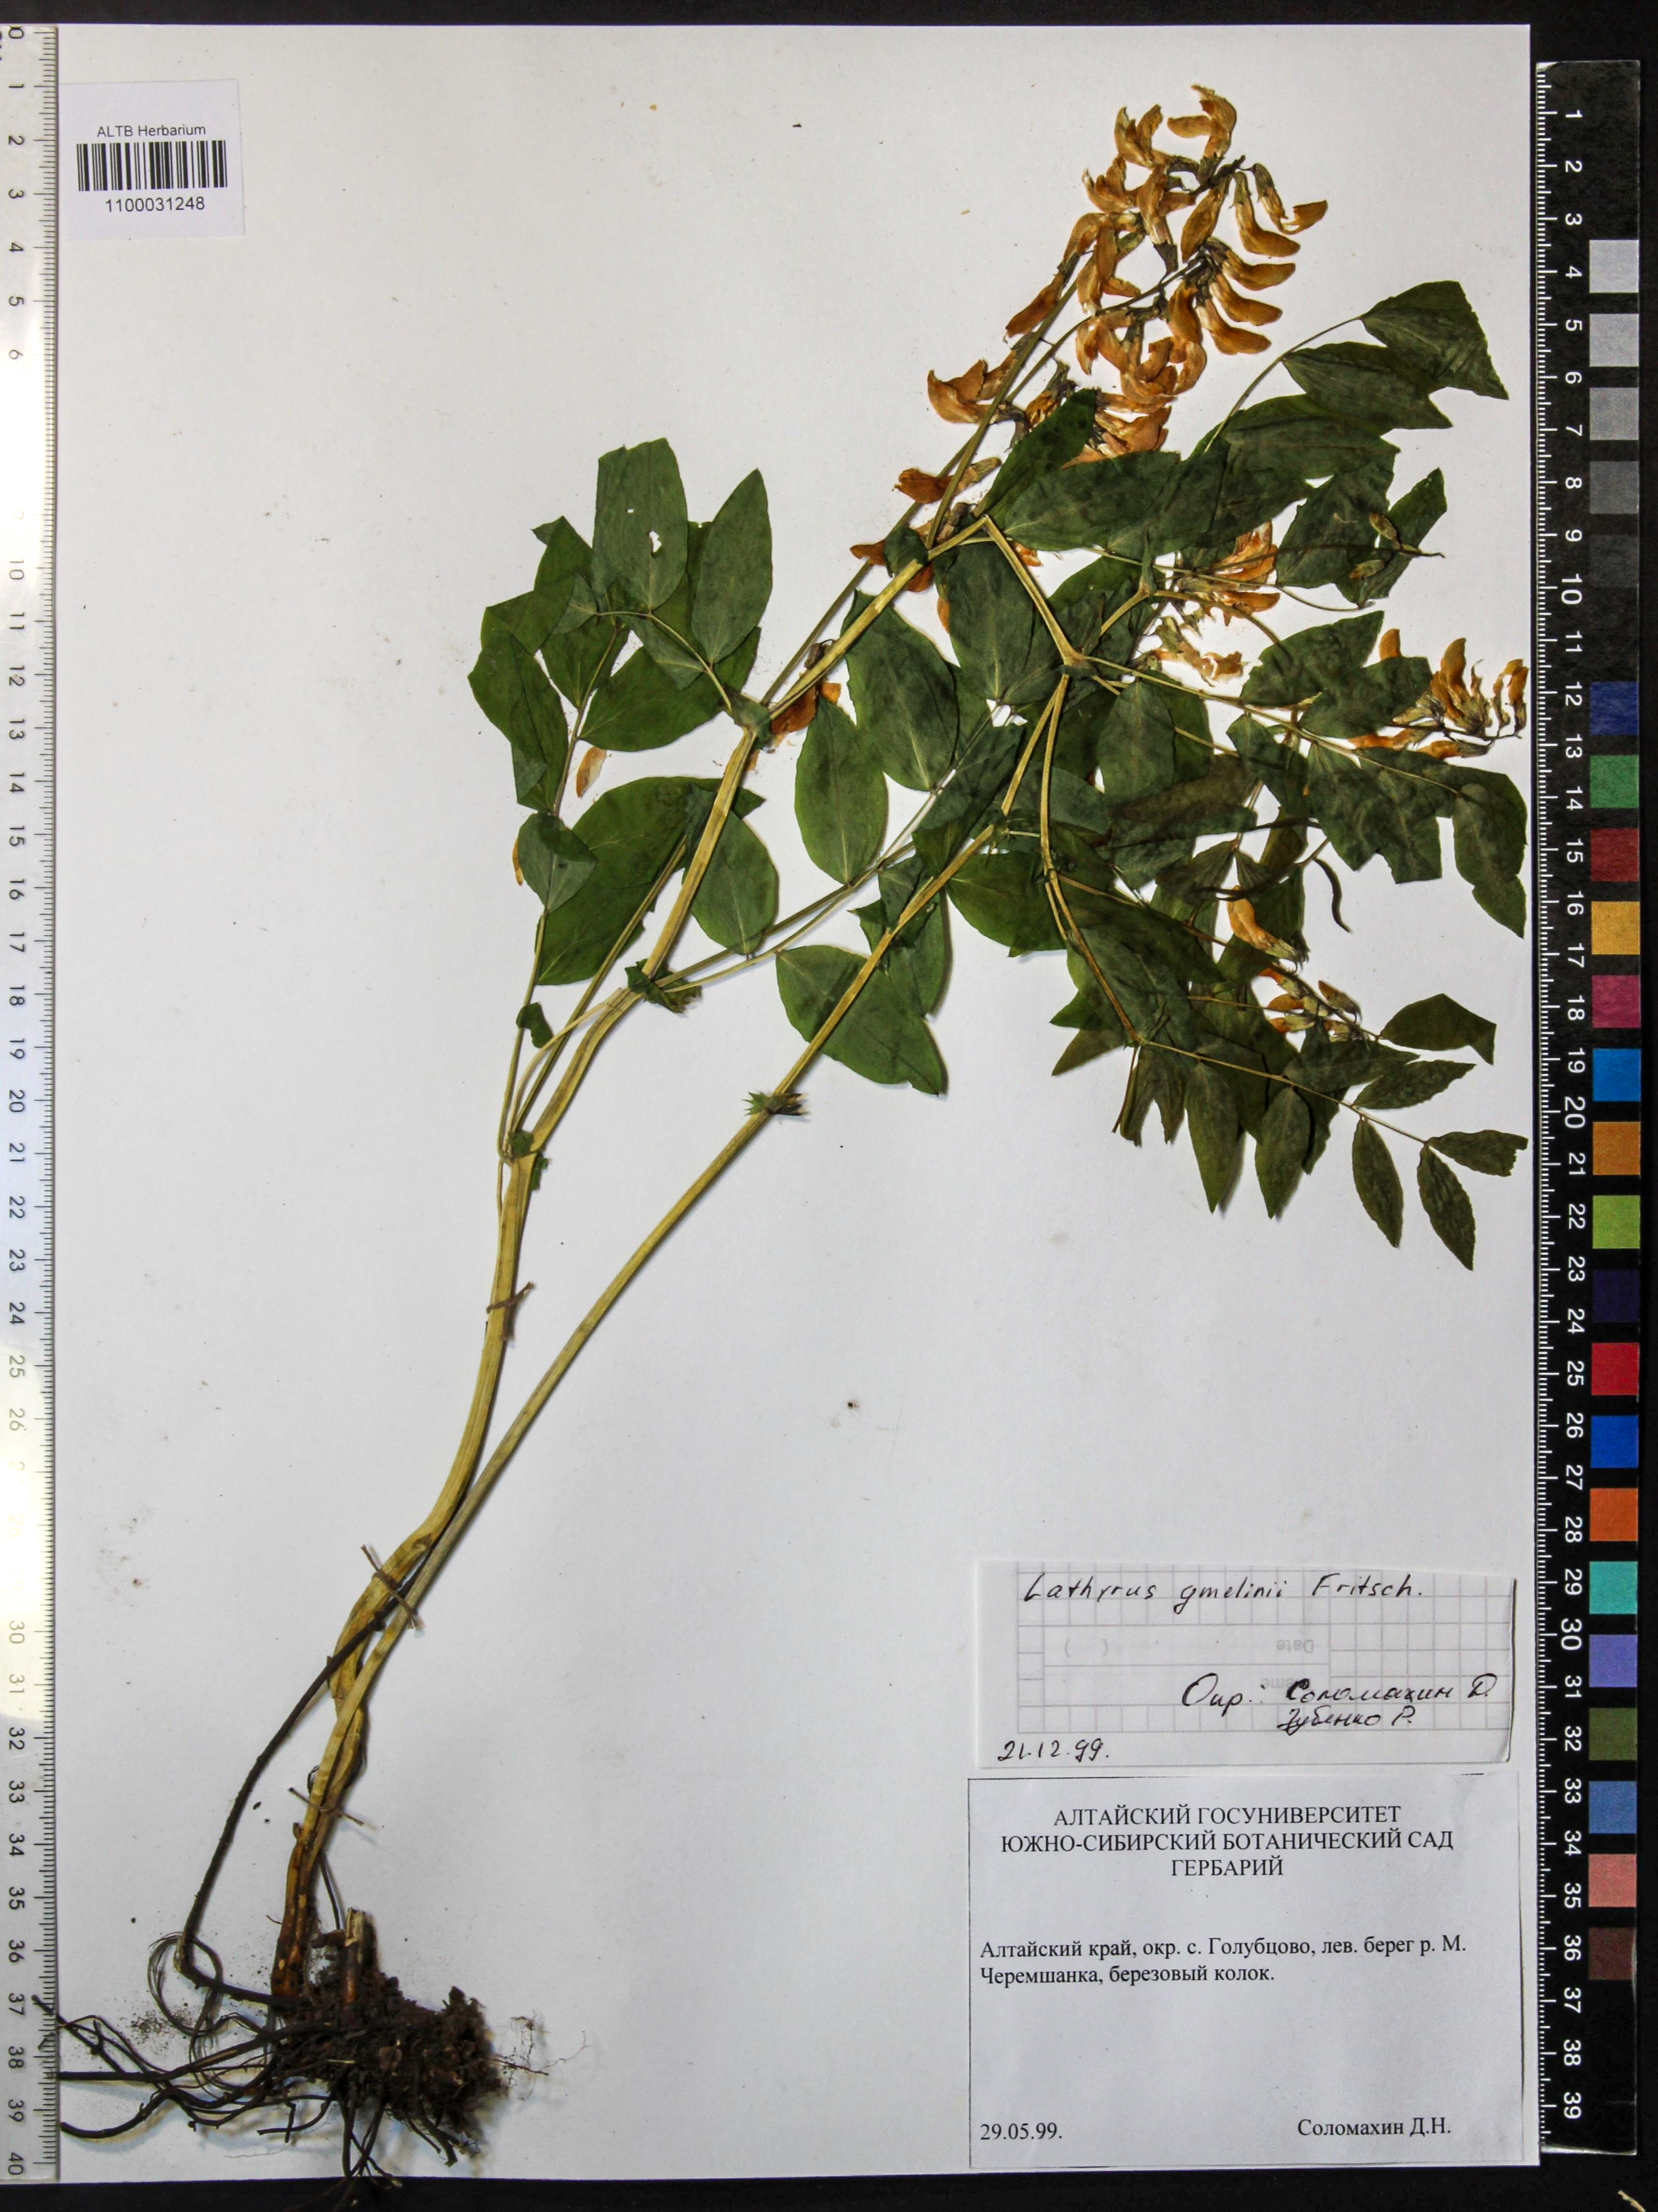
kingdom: Plantae
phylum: Tracheophyta
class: Magnoliopsida
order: Fabales
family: Fabaceae
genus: Lathyrus
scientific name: Lathyrus gmelinii
